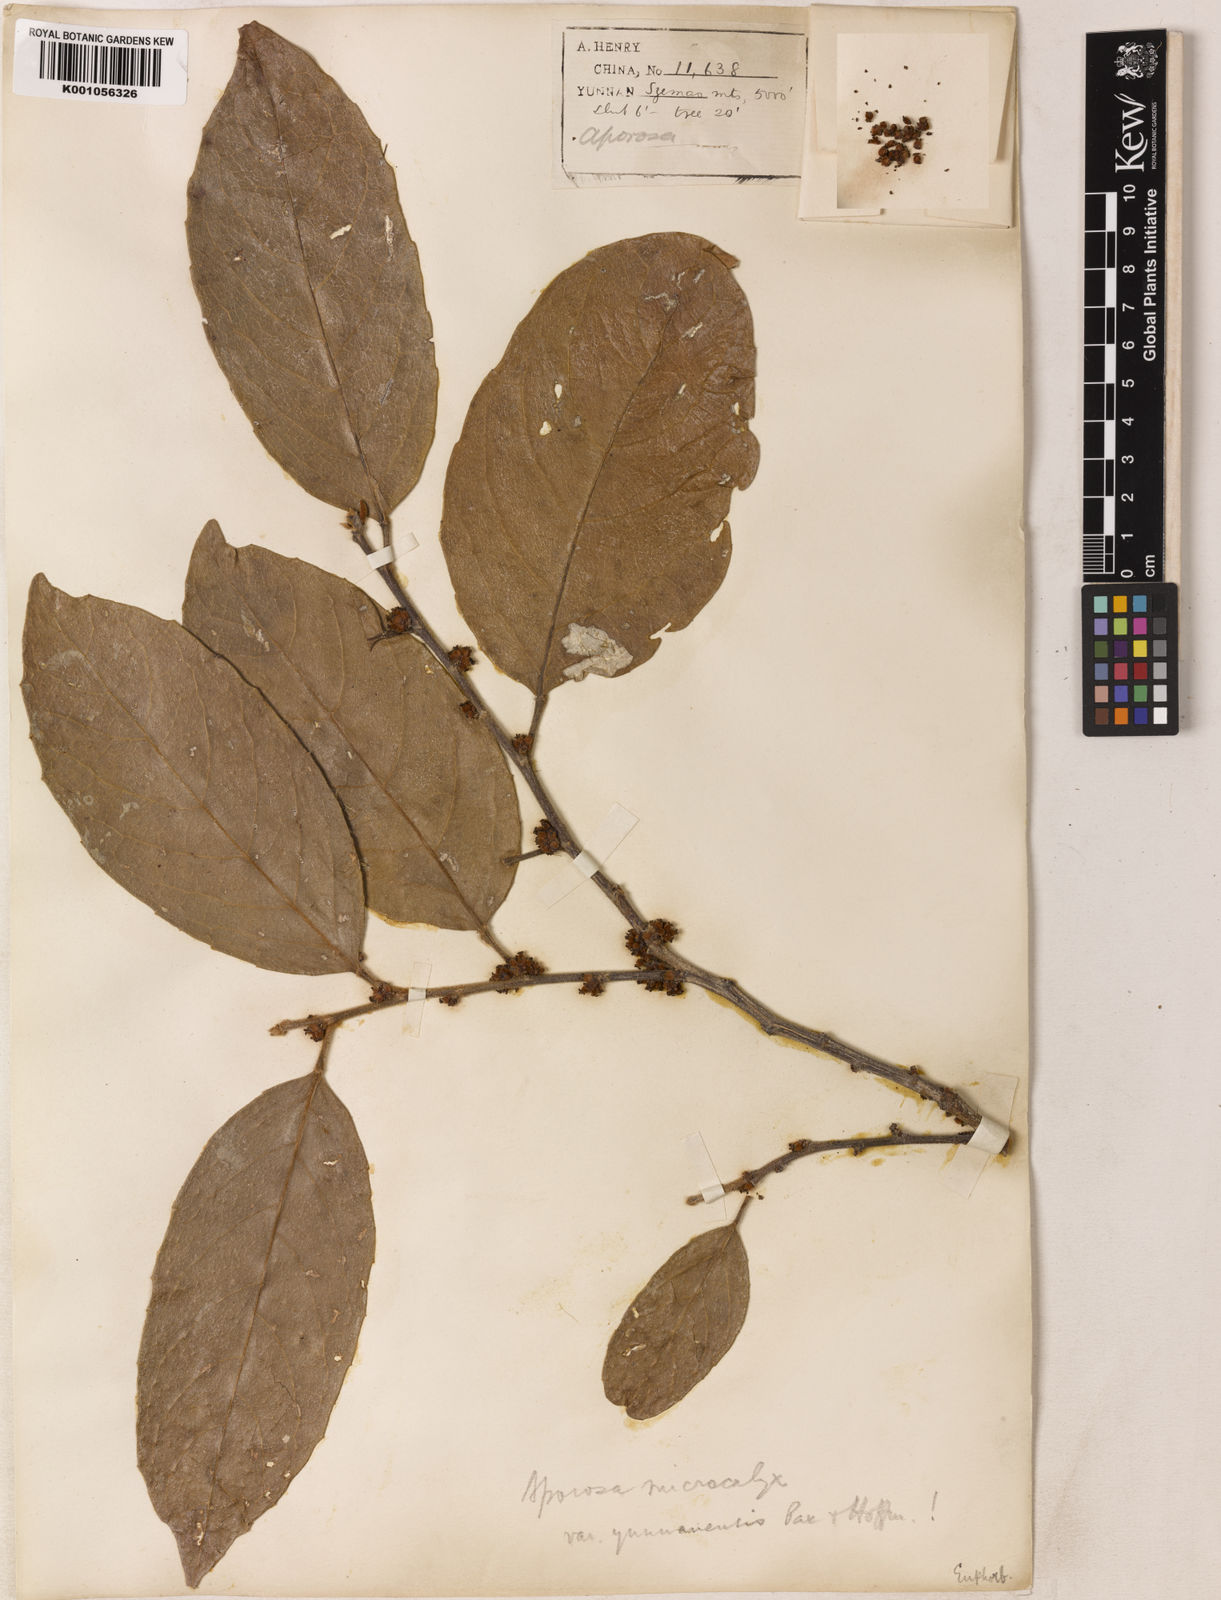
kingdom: Plantae
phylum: Tracheophyta
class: Magnoliopsida
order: Malpighiales
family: Phyllanthaceae
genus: Aporosa
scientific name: Aporosa octandra
